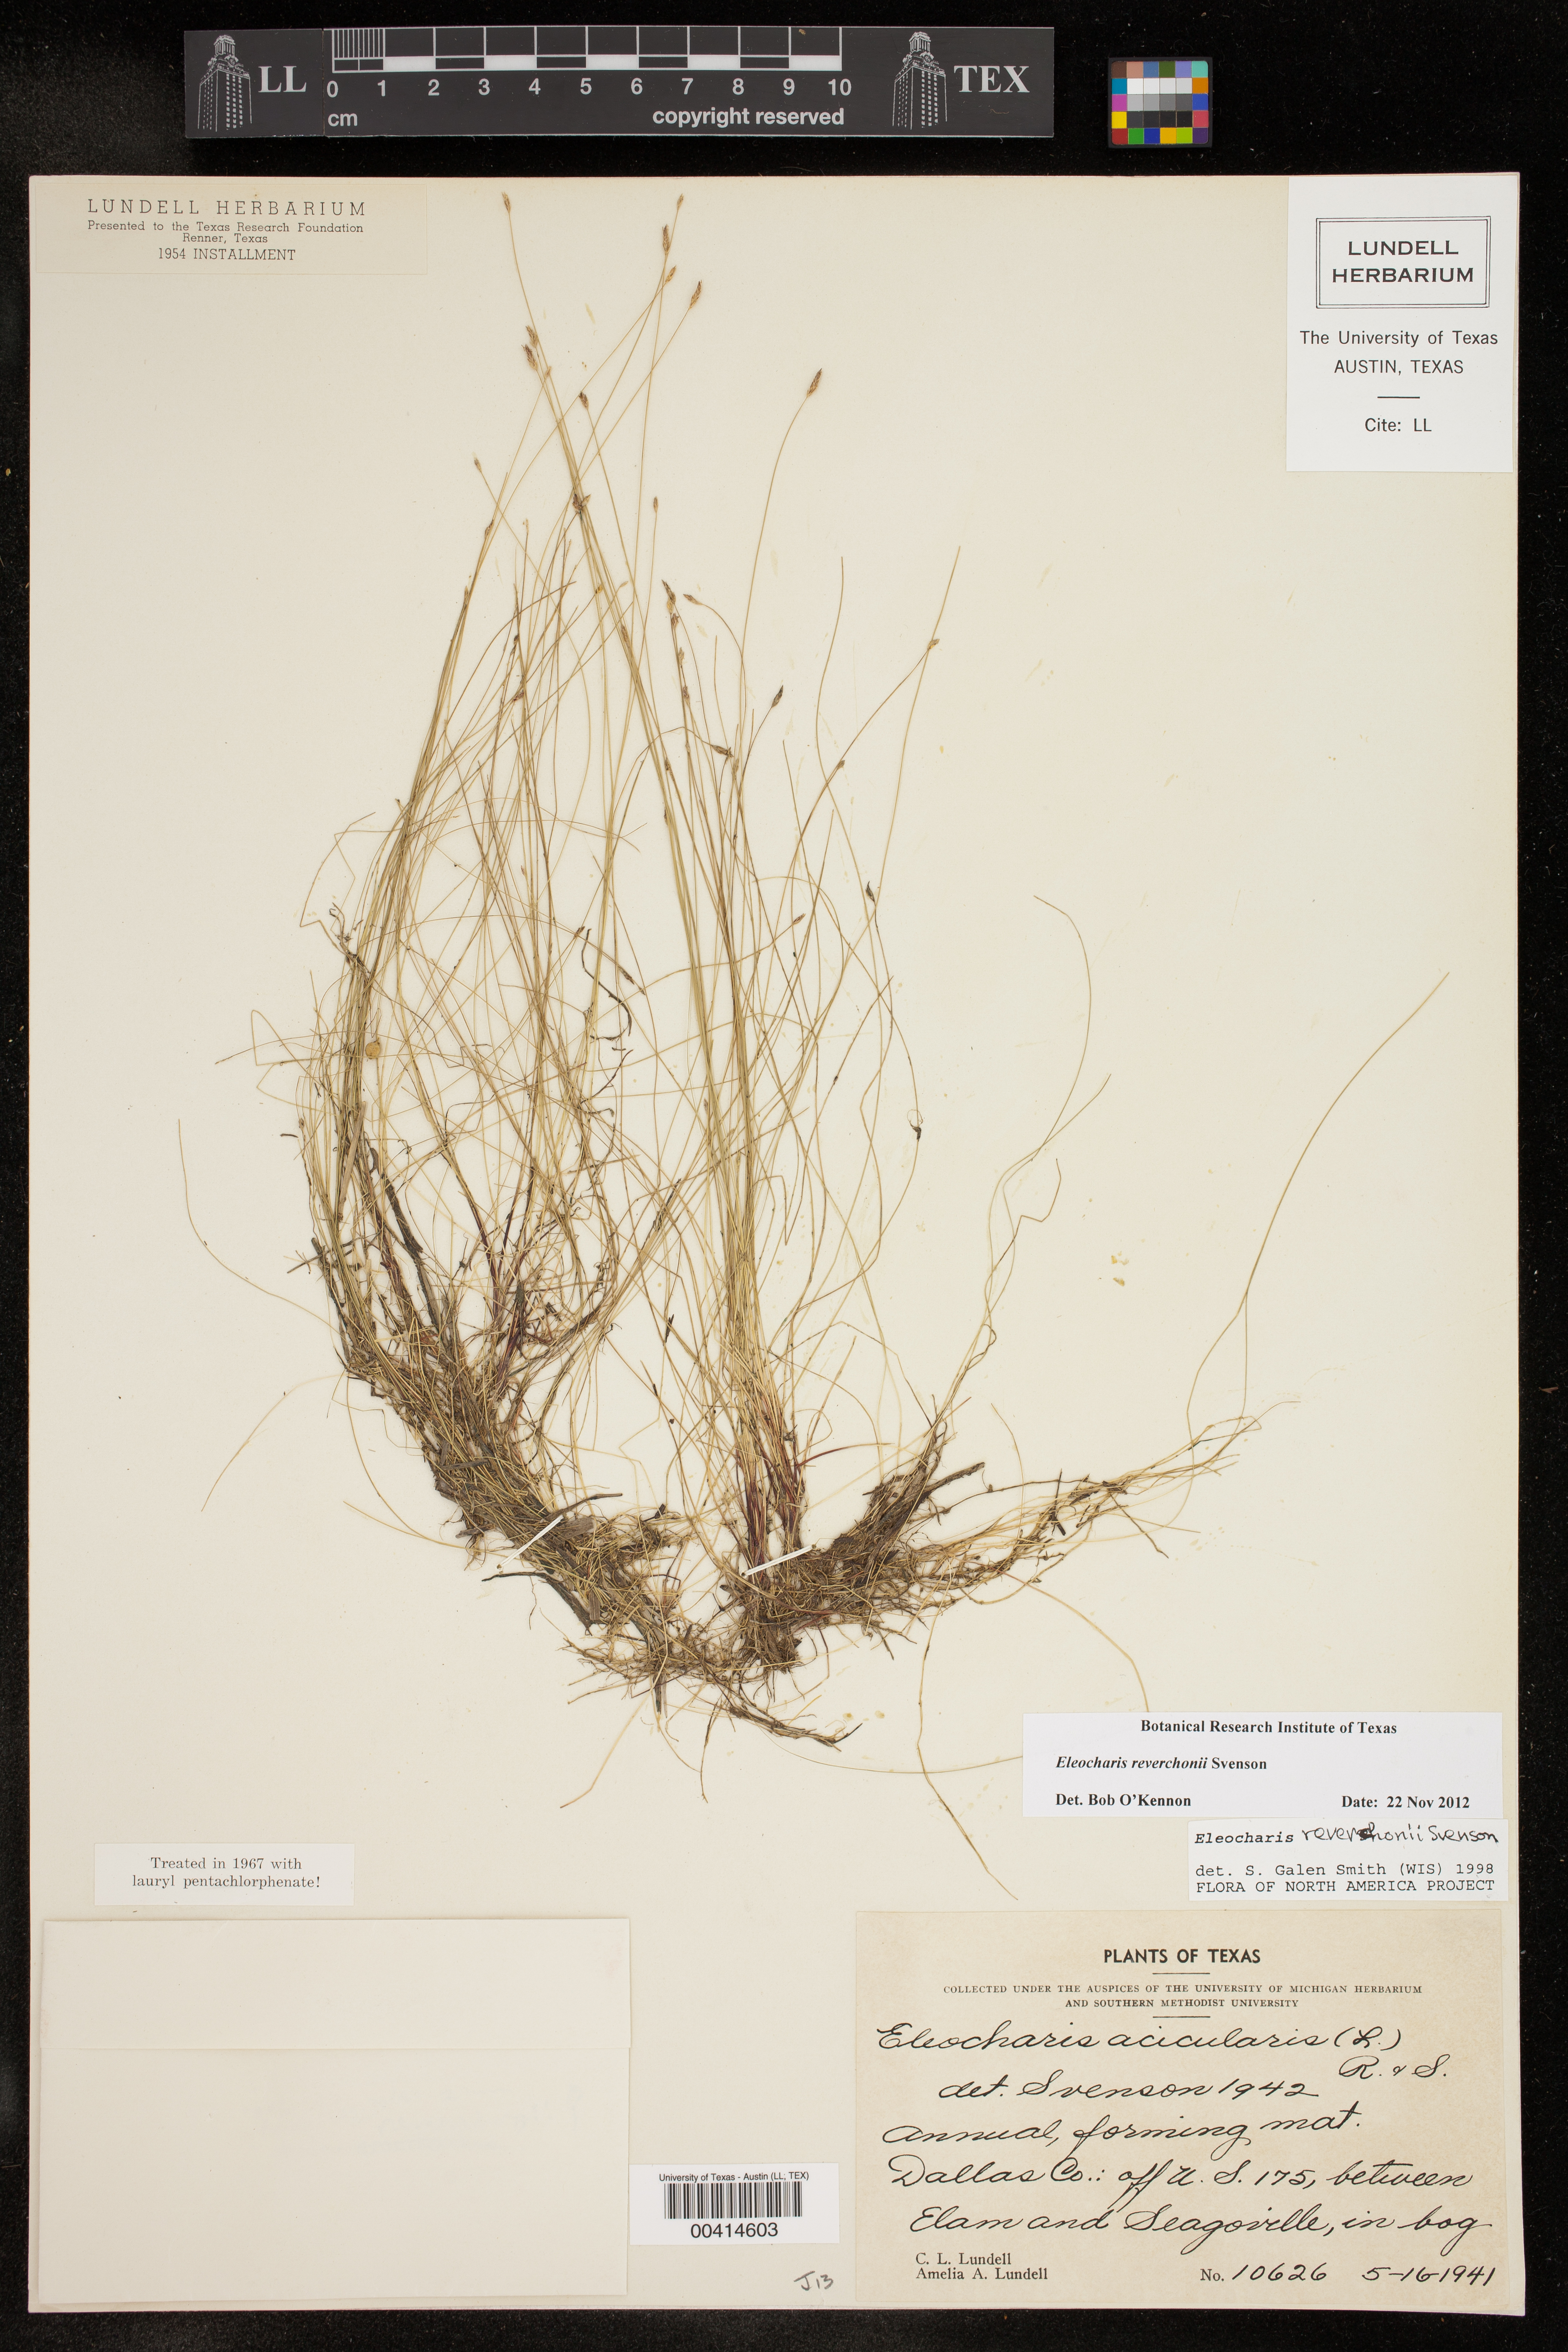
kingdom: Plantae
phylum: Tracheophyta
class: Liliopsida
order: Poales
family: Cyperaceae
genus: Eleocharis
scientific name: Eleocharis reverchonii
